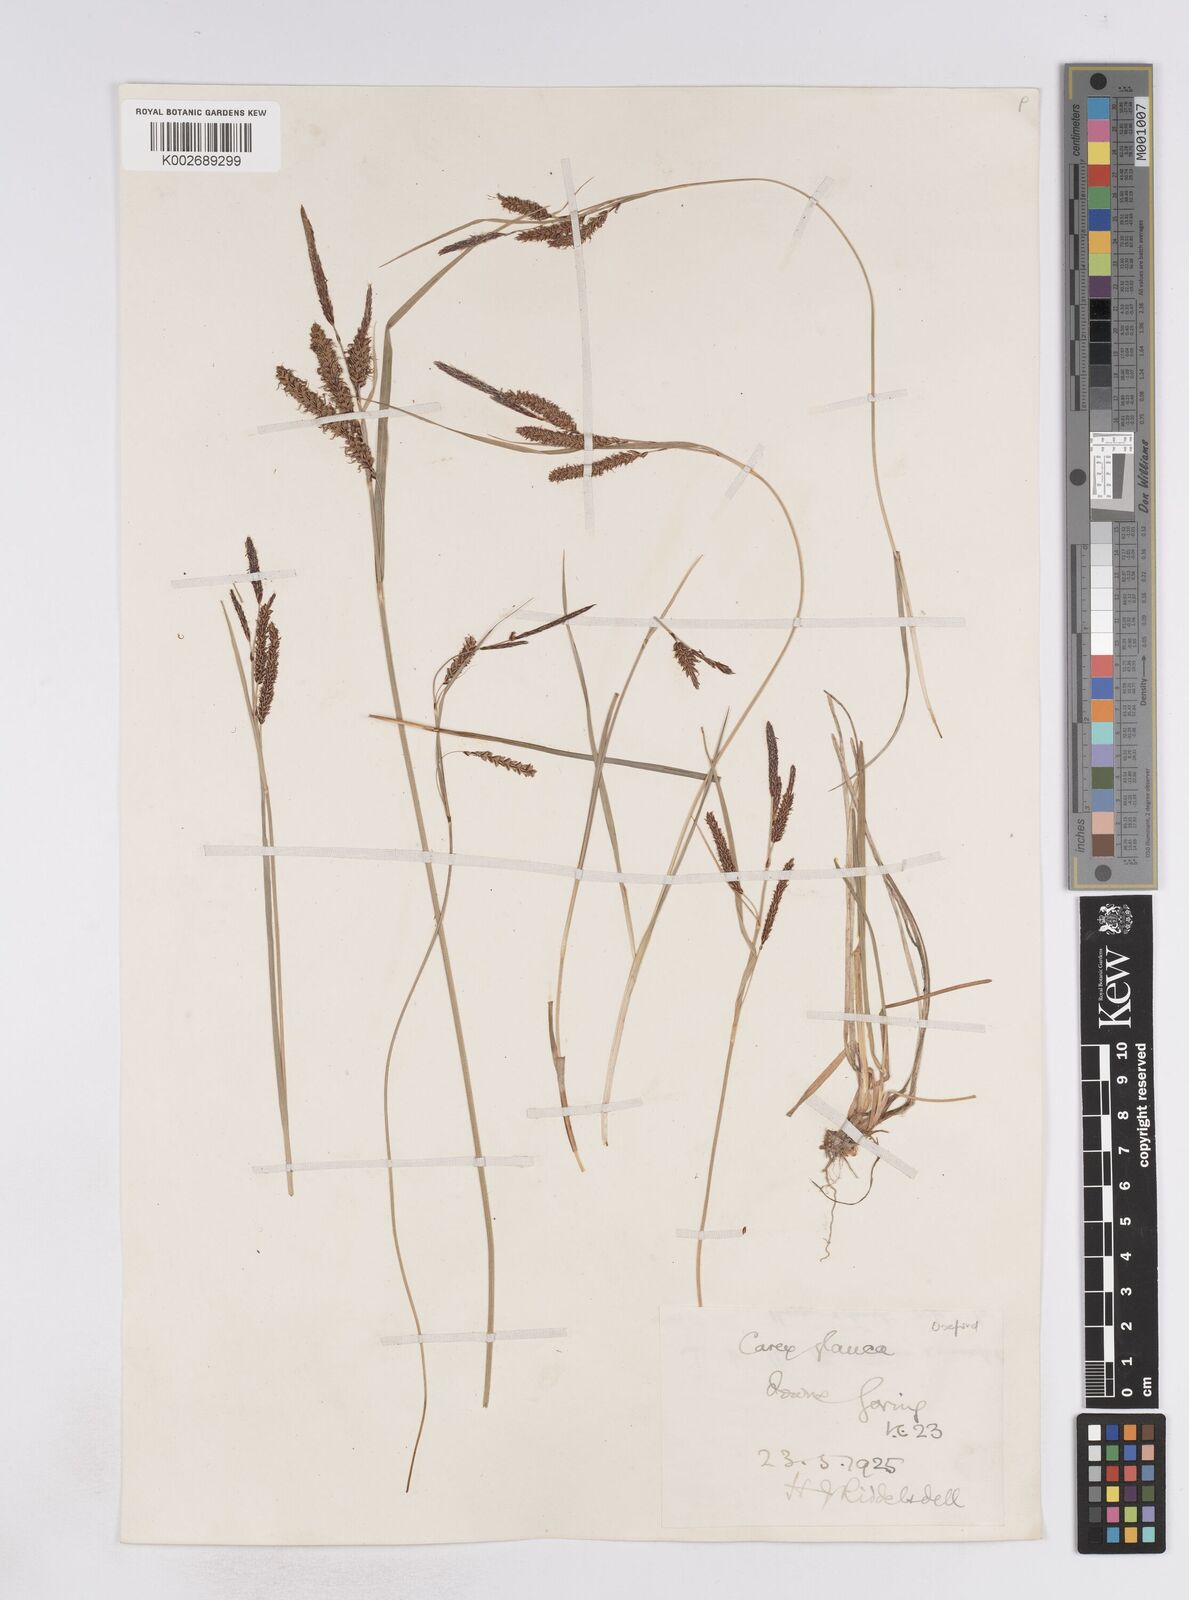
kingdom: Plantae
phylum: Tracheophyta
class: Liliopsida
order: Poales
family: Cyperaceae
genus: Carex
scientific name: Carex flacca
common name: Glaucous sedge
